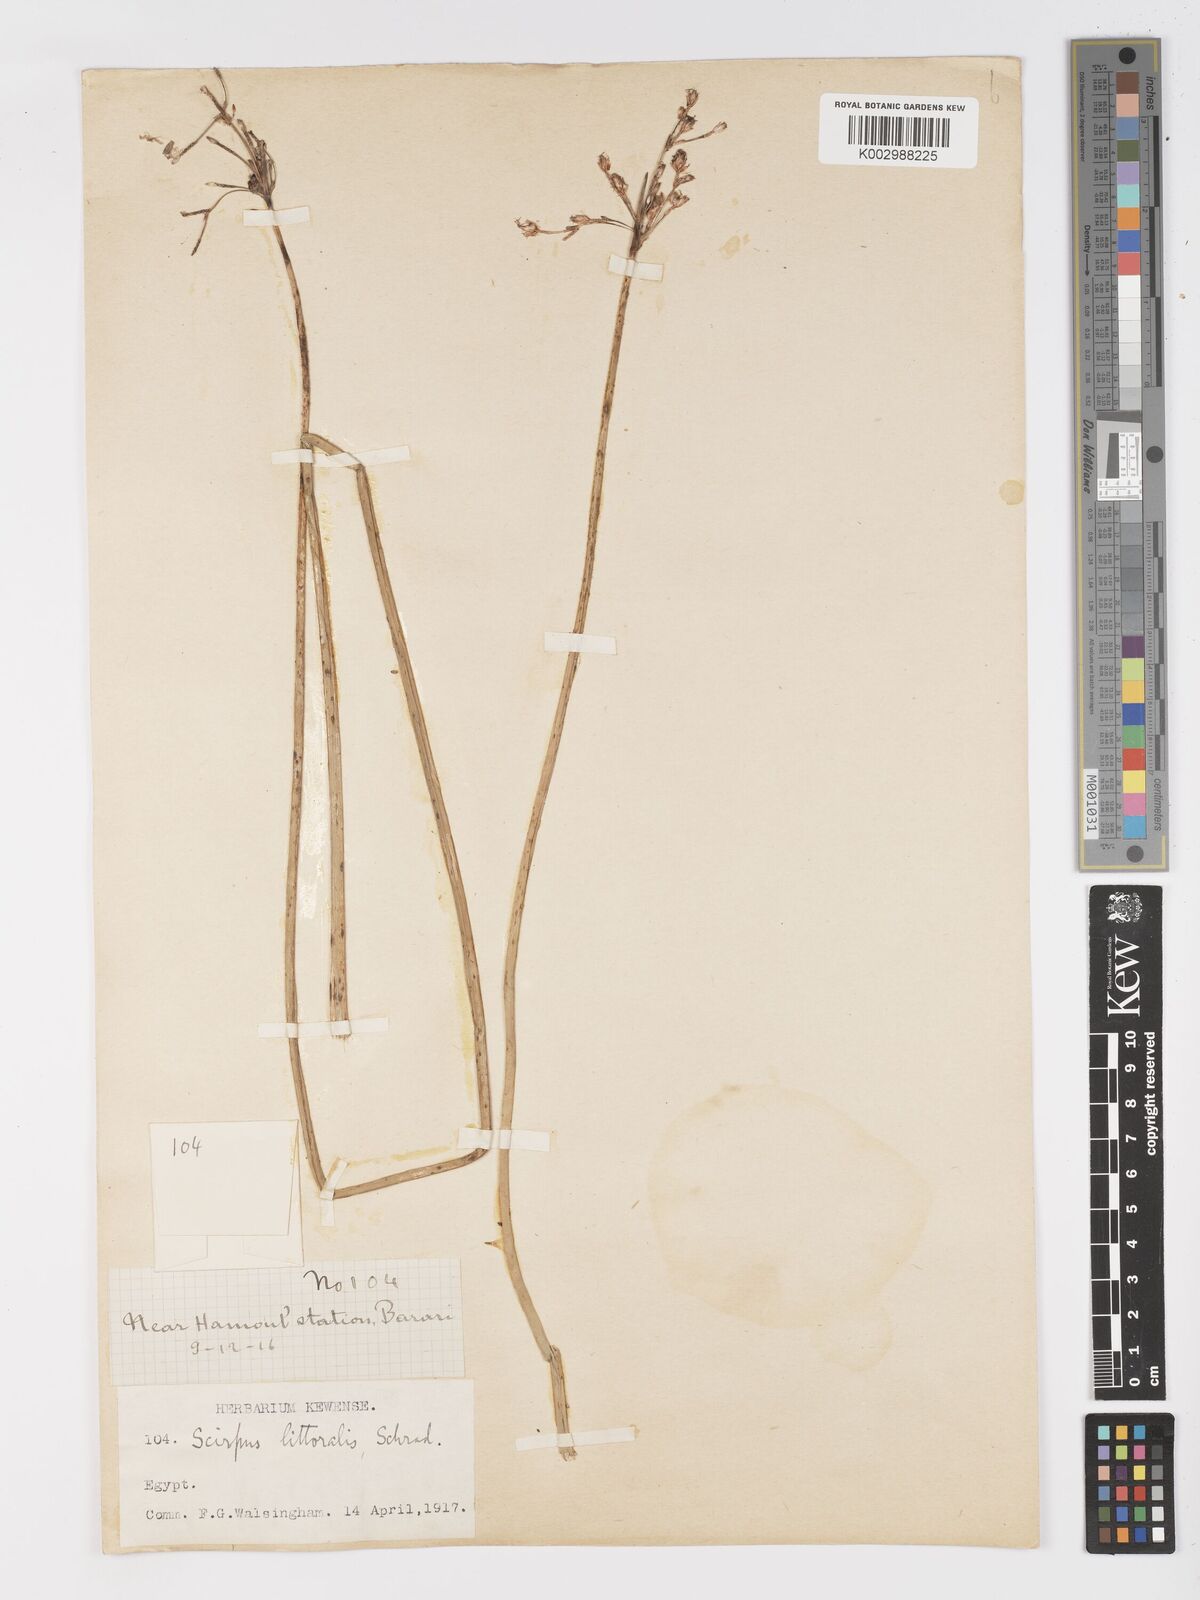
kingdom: Plantae
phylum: Tracheophyta
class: Liliopsida
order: Poales
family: Cyperaceae
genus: Schoenoplectus
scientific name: Schoenoplectus litoralis
